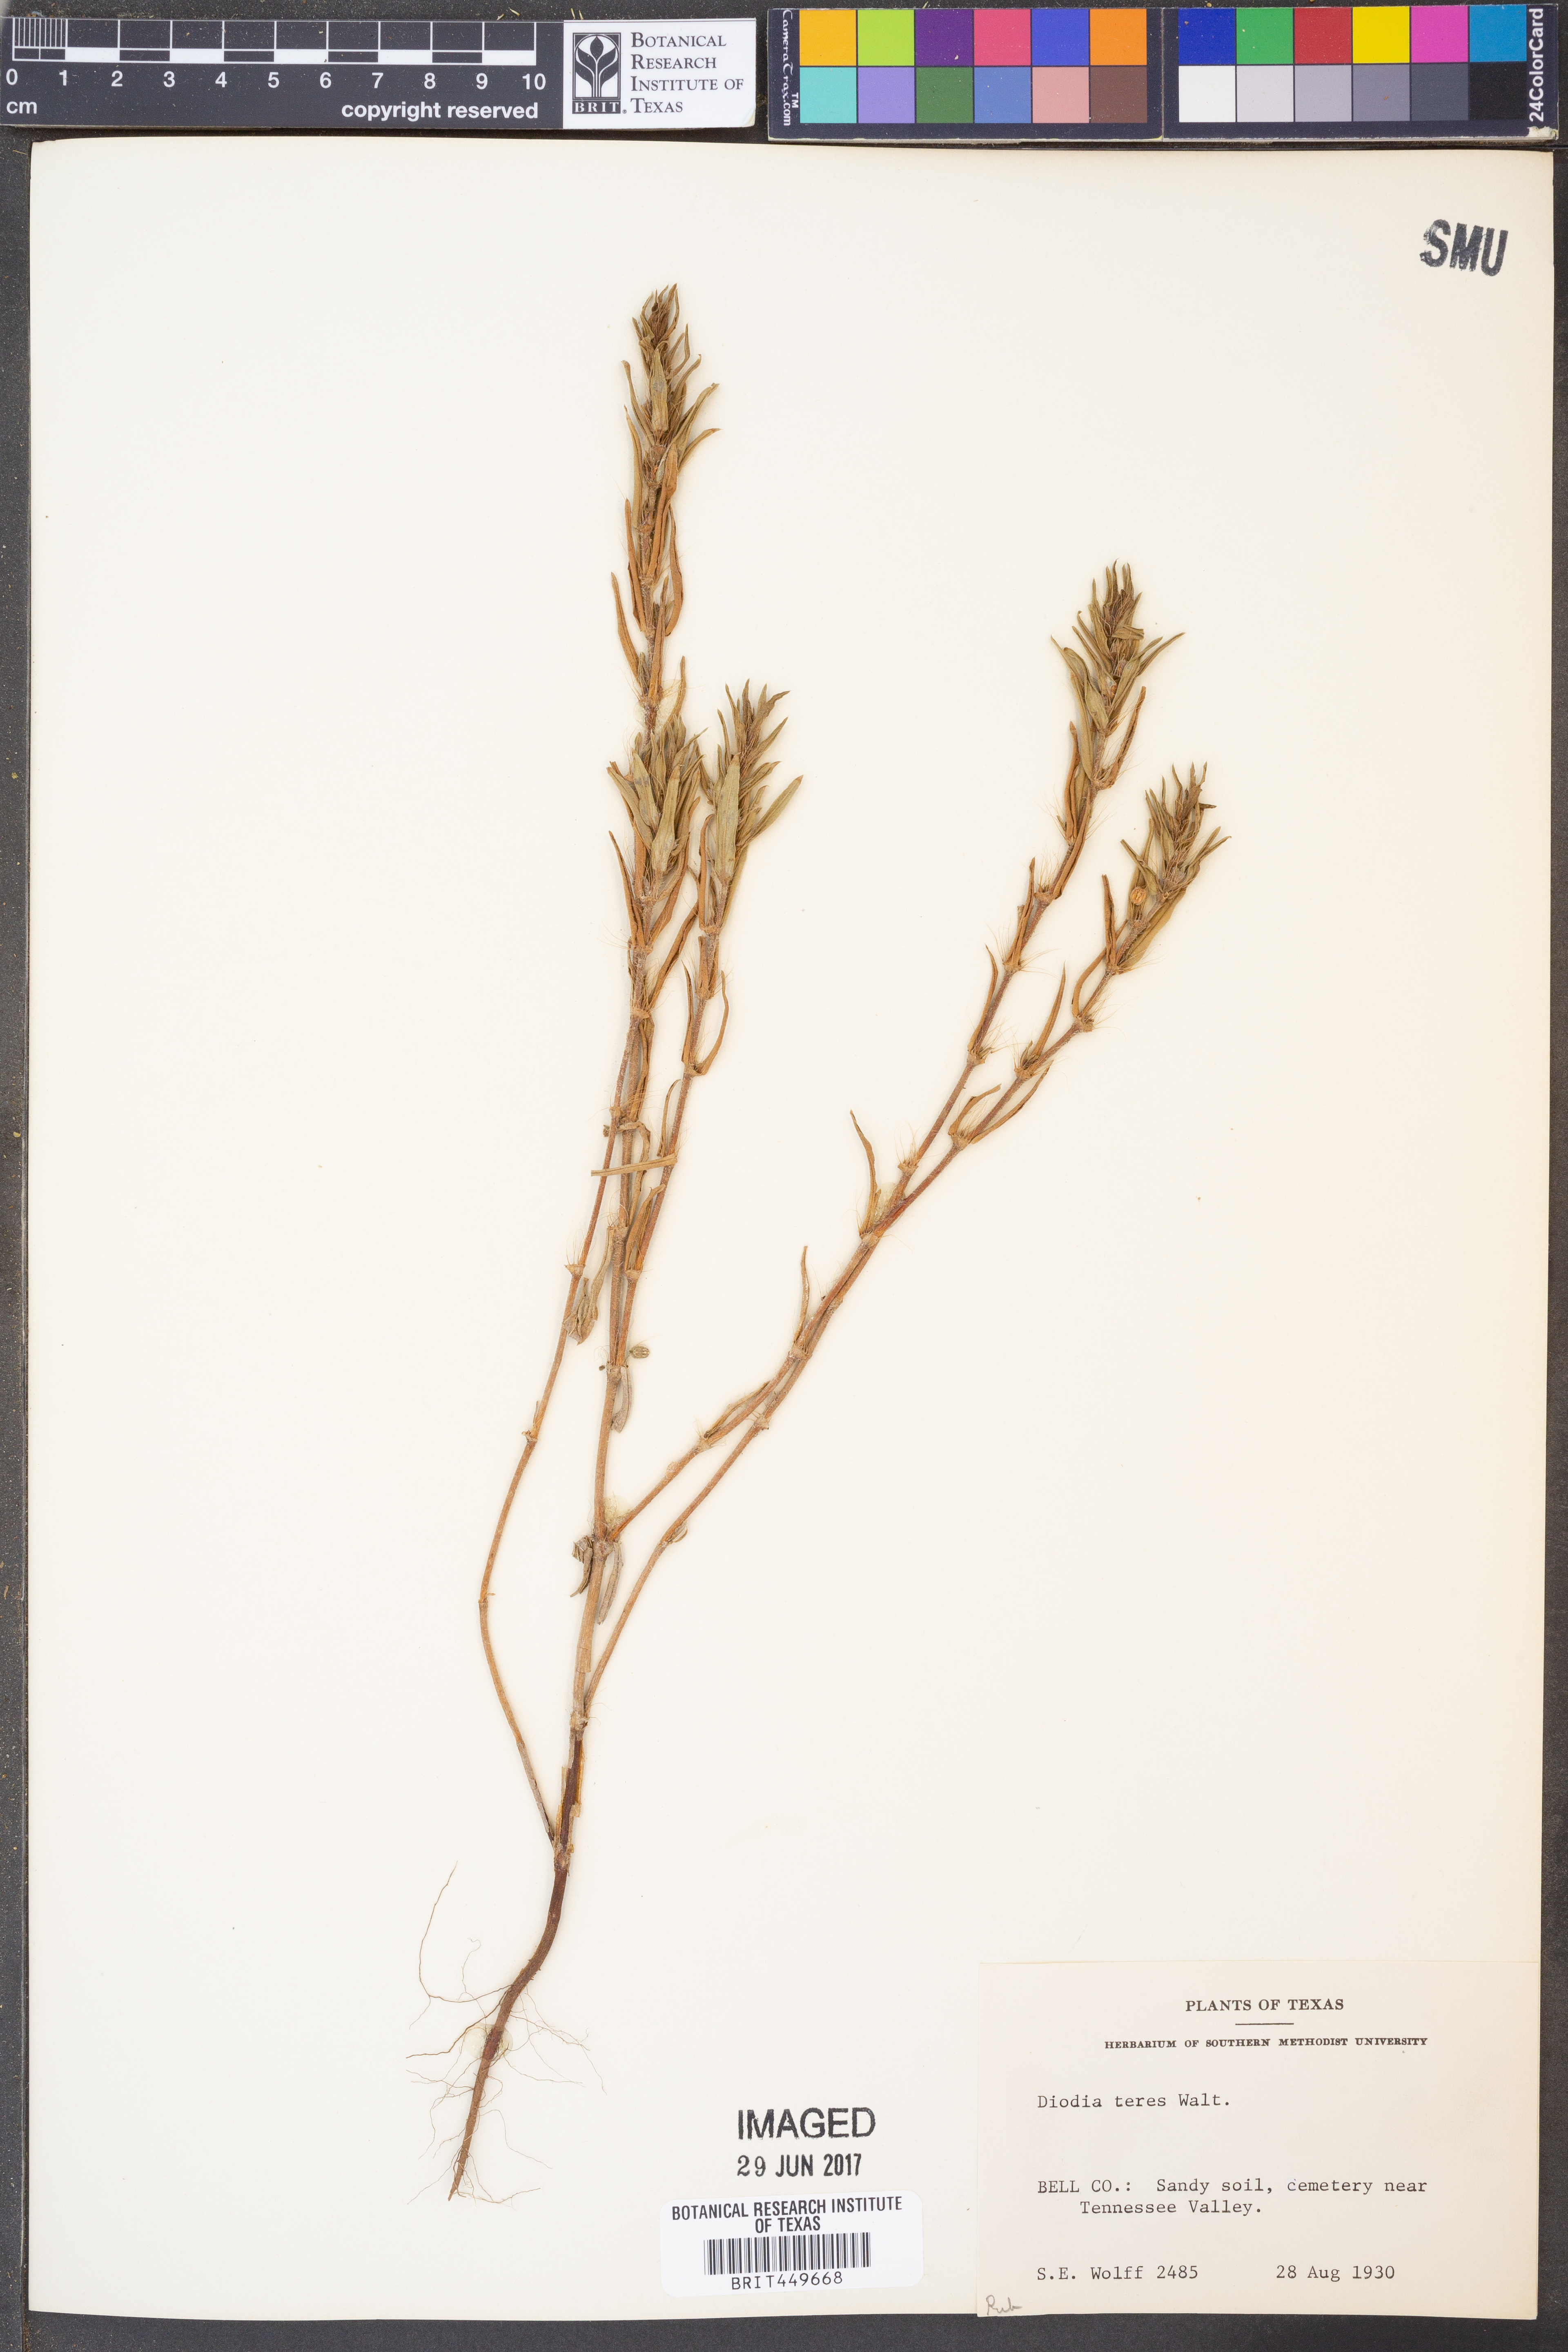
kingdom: Plantae
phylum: Tracheophyta
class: Magnoliopsida
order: Gentianales
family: Rubiaceae
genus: Hexasepalum
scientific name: Hexasepalum teres
